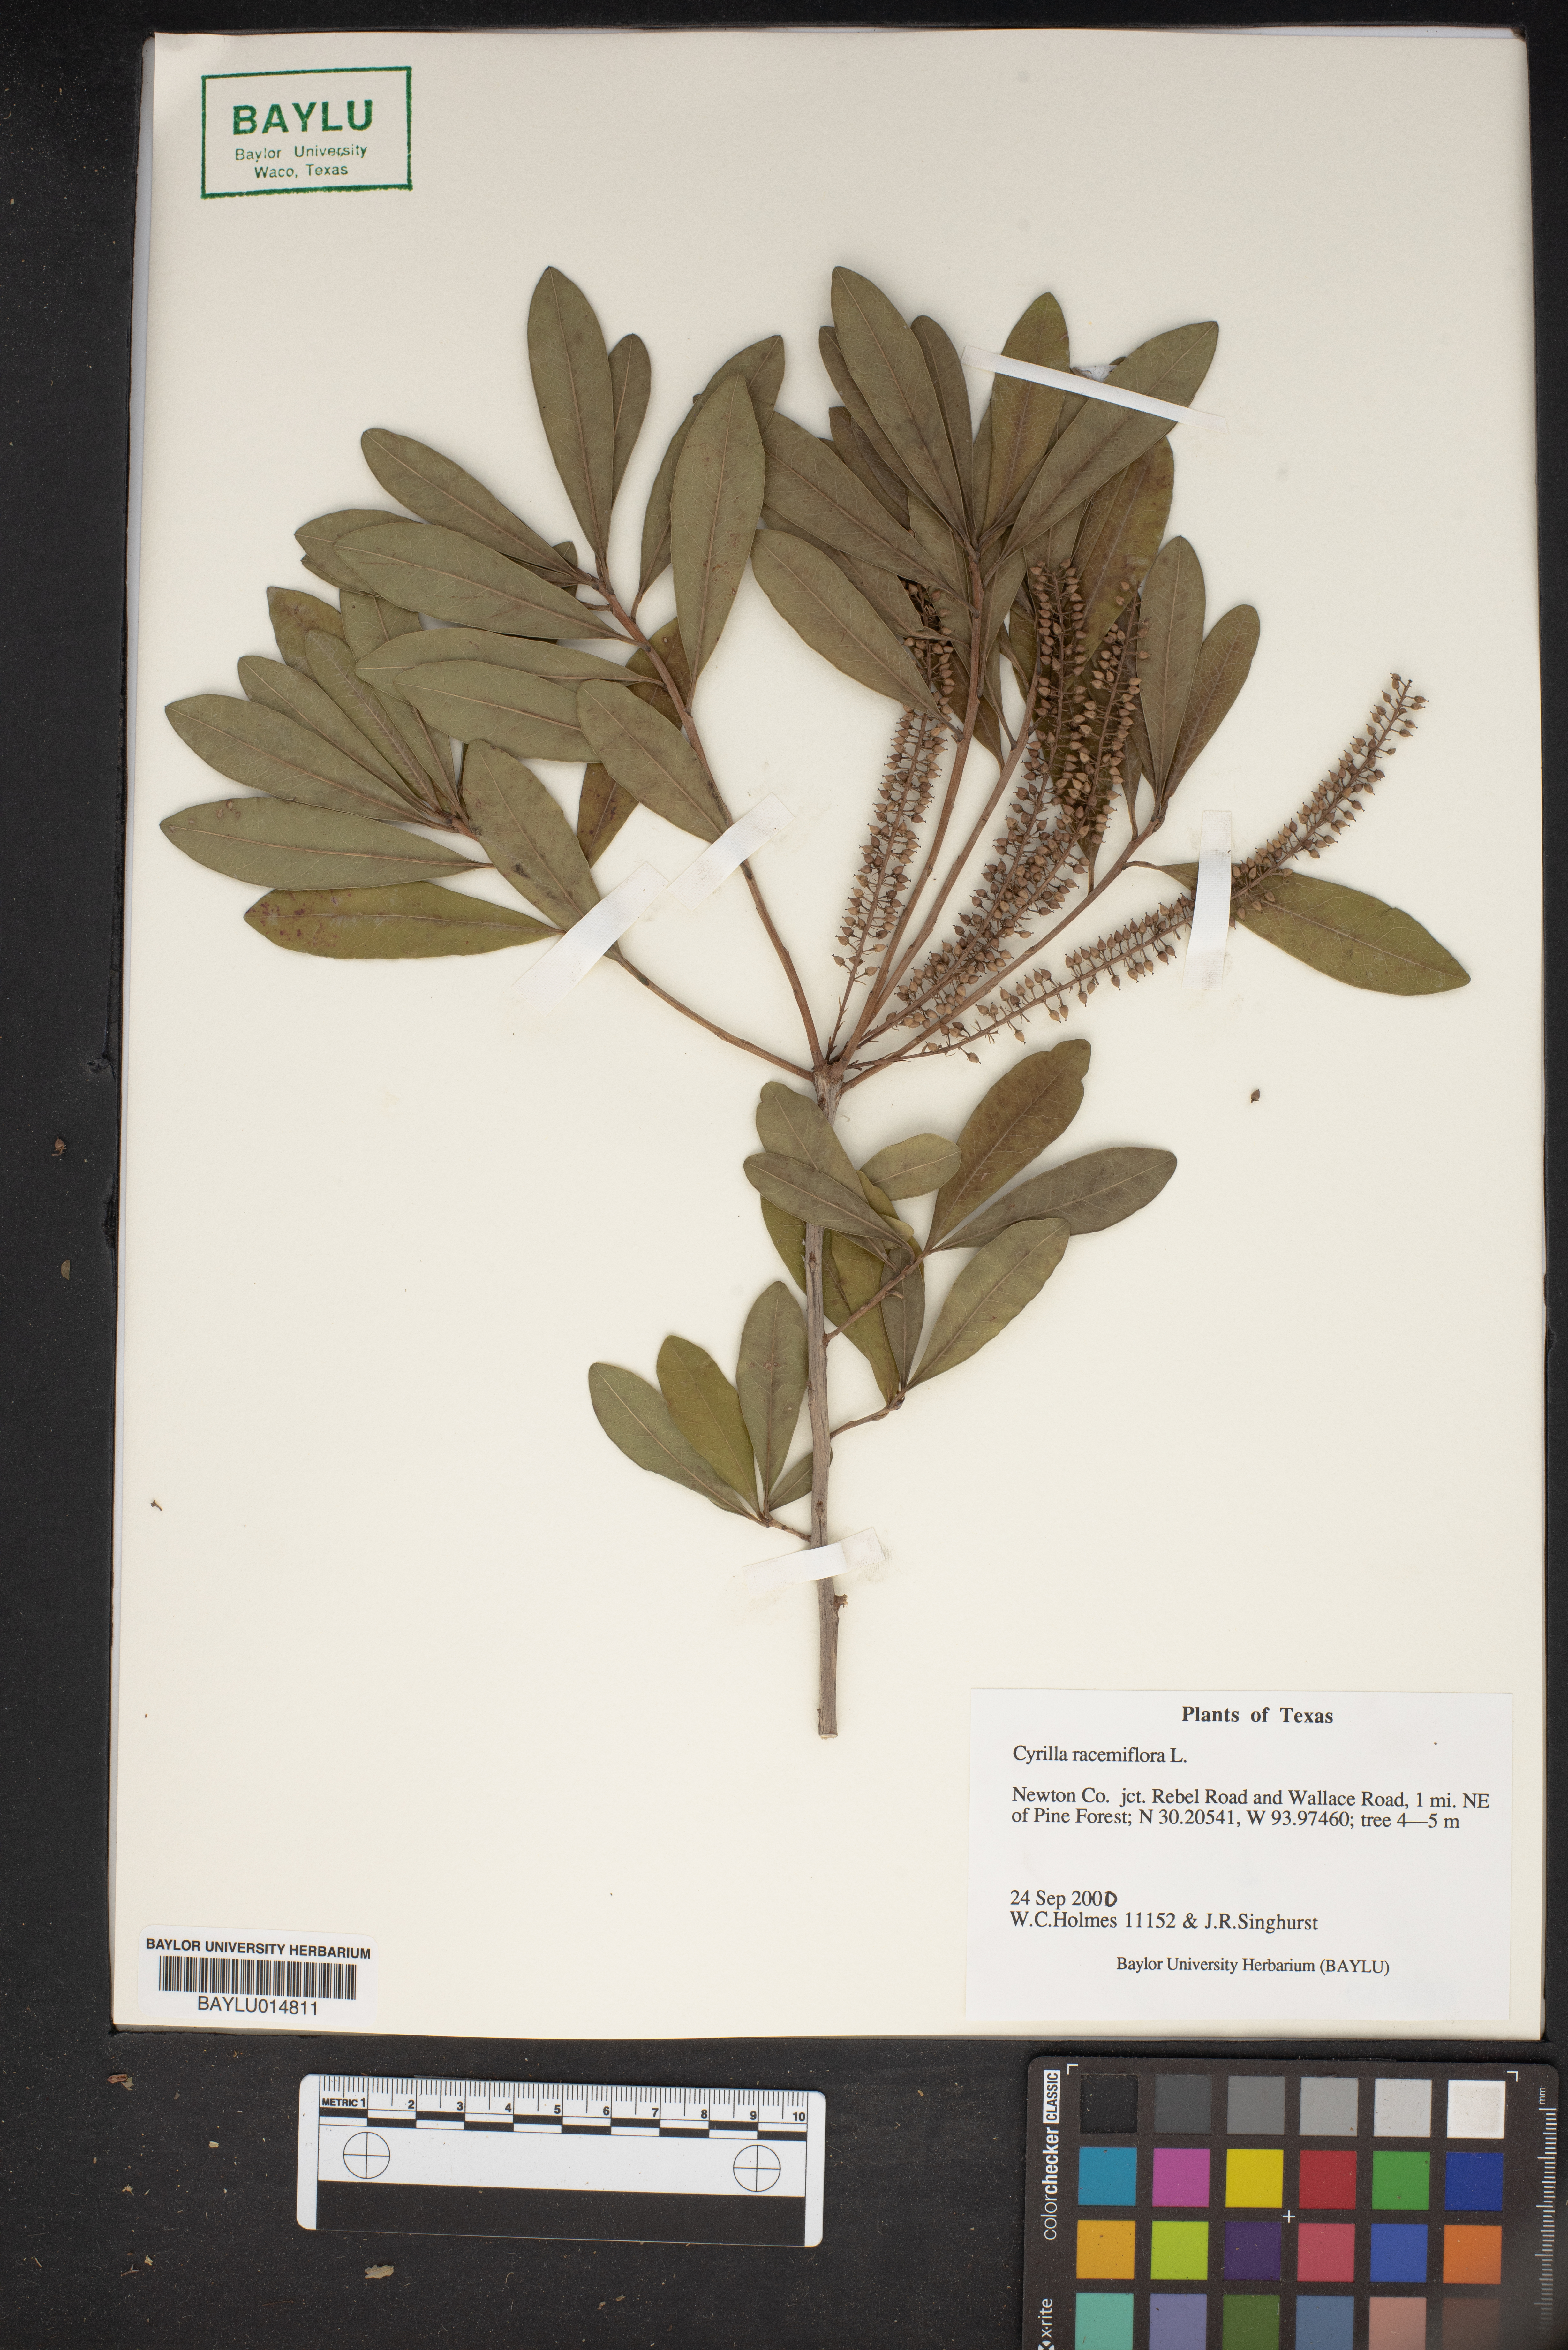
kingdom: Plantae
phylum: Tracheophyta
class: Magnoliopsida
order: Ericales
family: Cyrillaceae
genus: Cyrilla
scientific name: Cyrilla racemiflora
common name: Black titi
